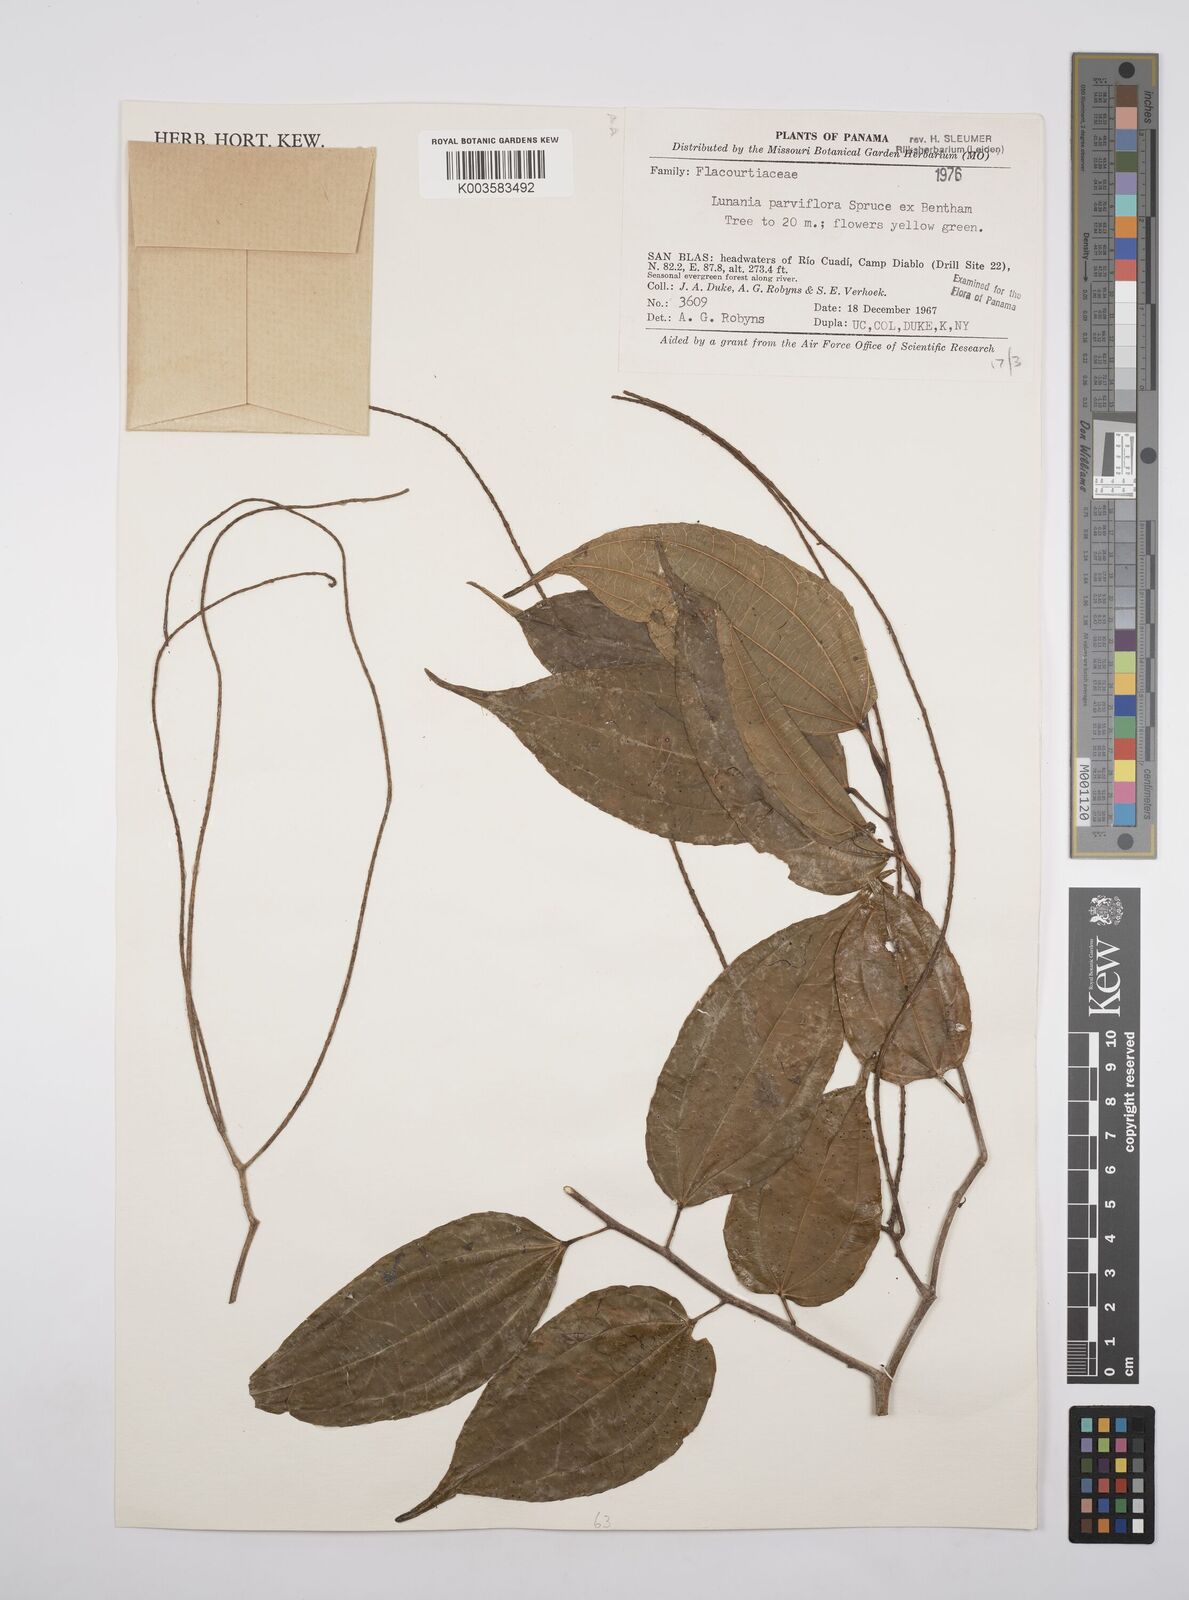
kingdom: Plantae
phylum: Tracheophyta
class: Magnoliopsida
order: Malpighiales
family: Salicaceae
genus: Lunania
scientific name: Lunania parviflora
